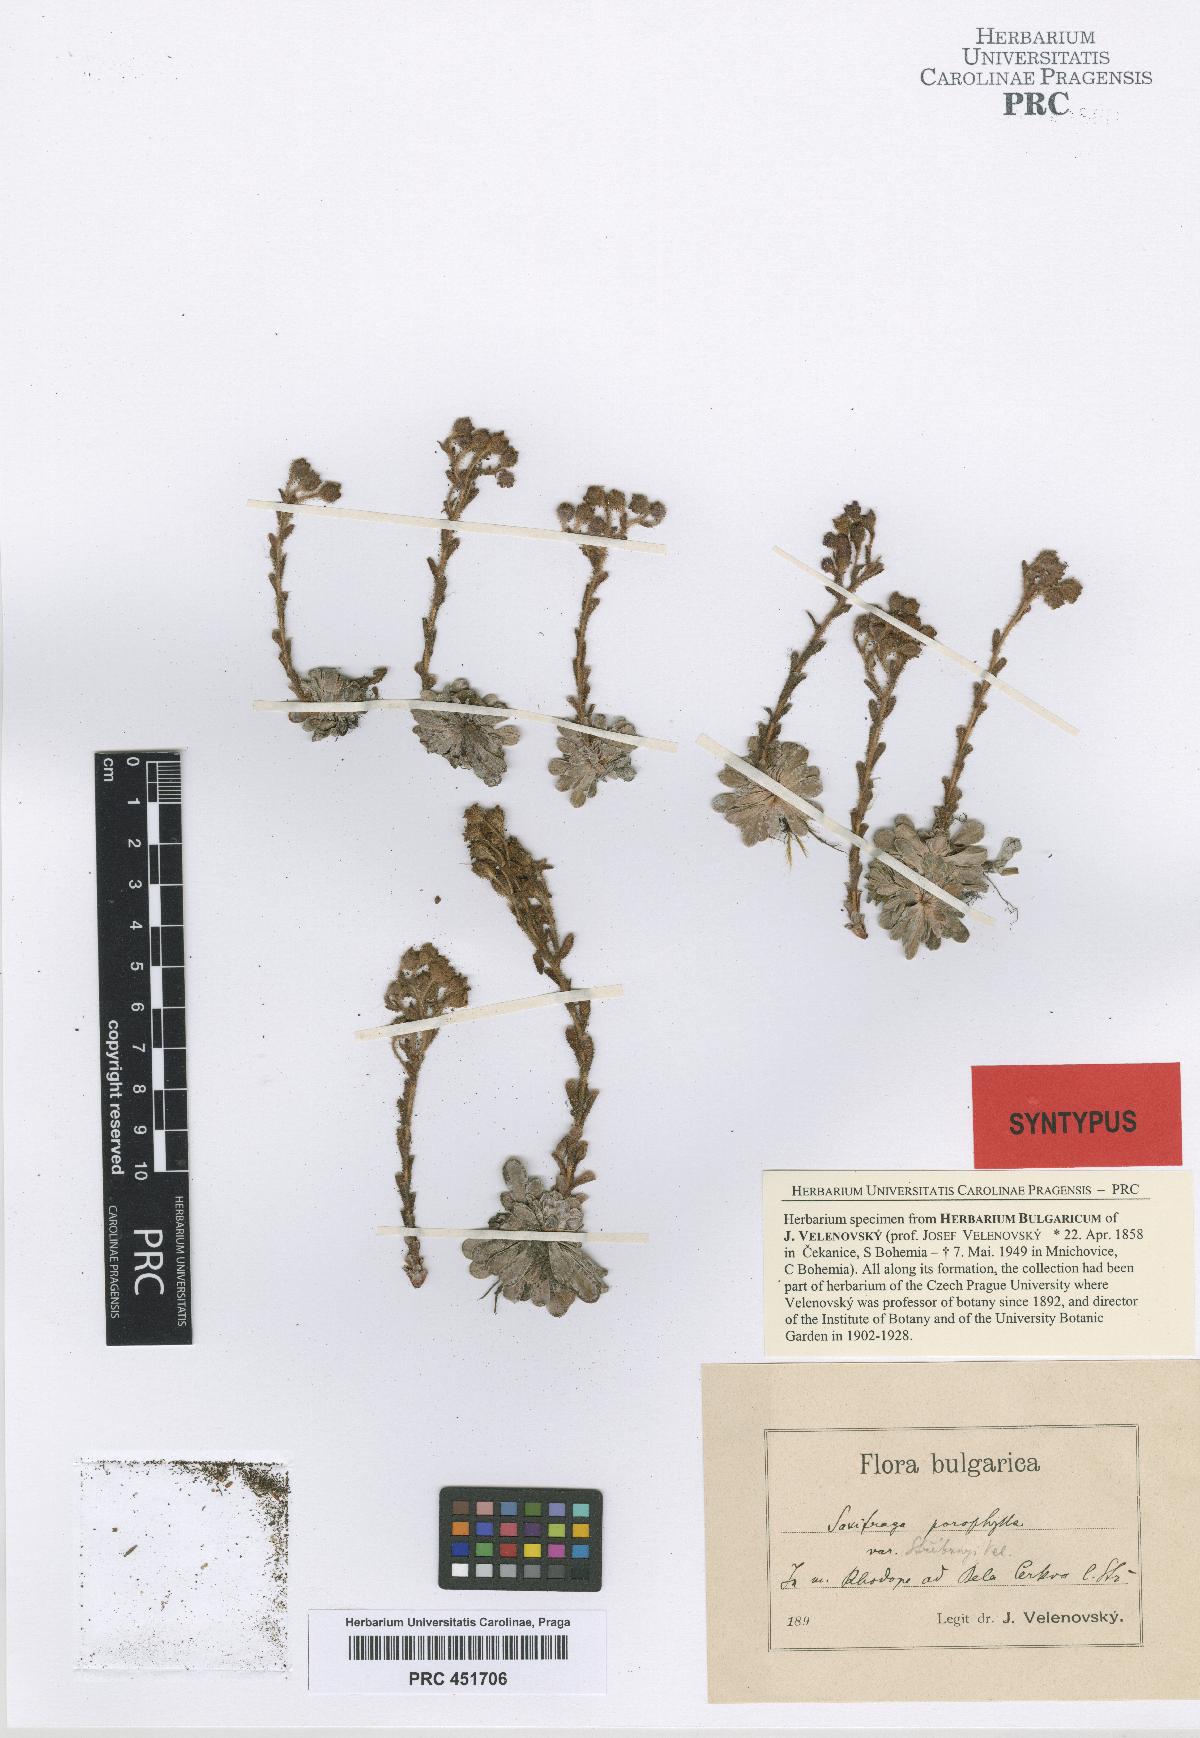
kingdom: Plantae
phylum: Tracheophyta
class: Magnoliopsida
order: Saxifragales
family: Saxifragaceae
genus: Saxifraga
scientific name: Saxifraga stribrnyi
